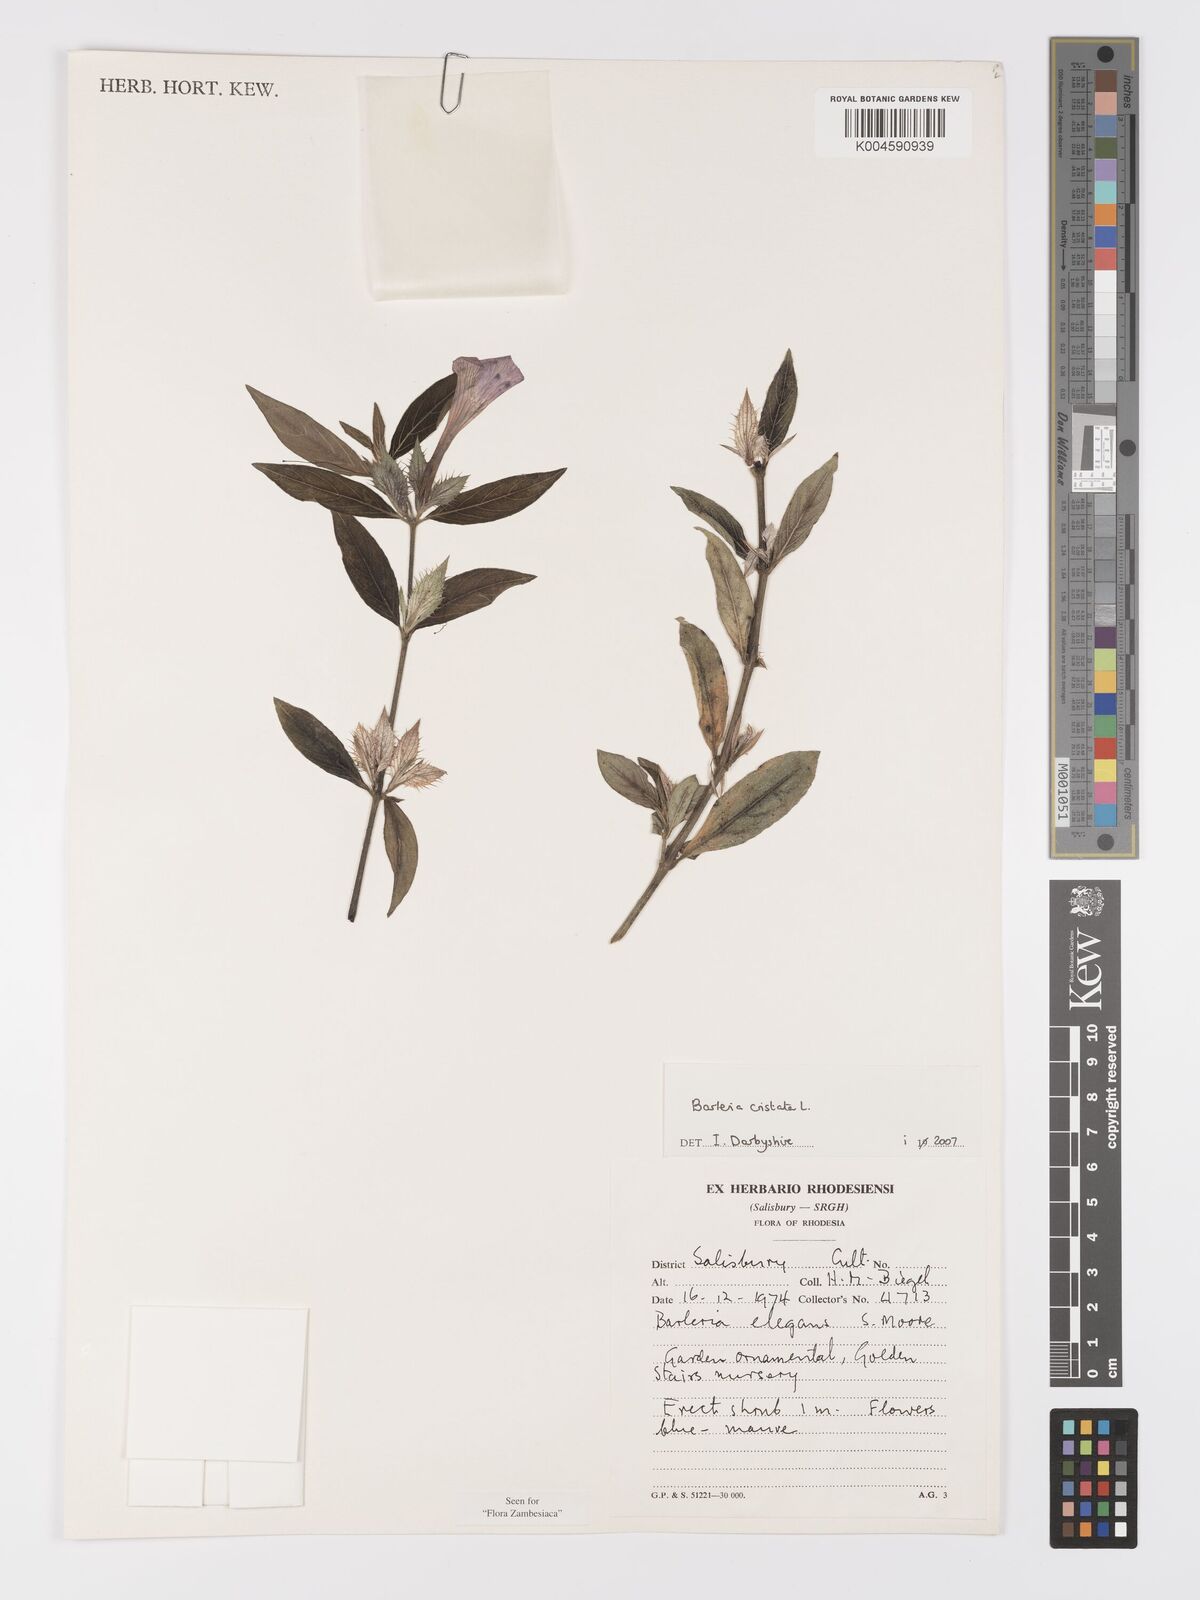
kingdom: Plantae
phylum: Tracheophyta
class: Magnoliopsida
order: Lamiales
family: Acanthaceae
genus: Barleria
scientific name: Barleria cristata
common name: Crested philippine violet
